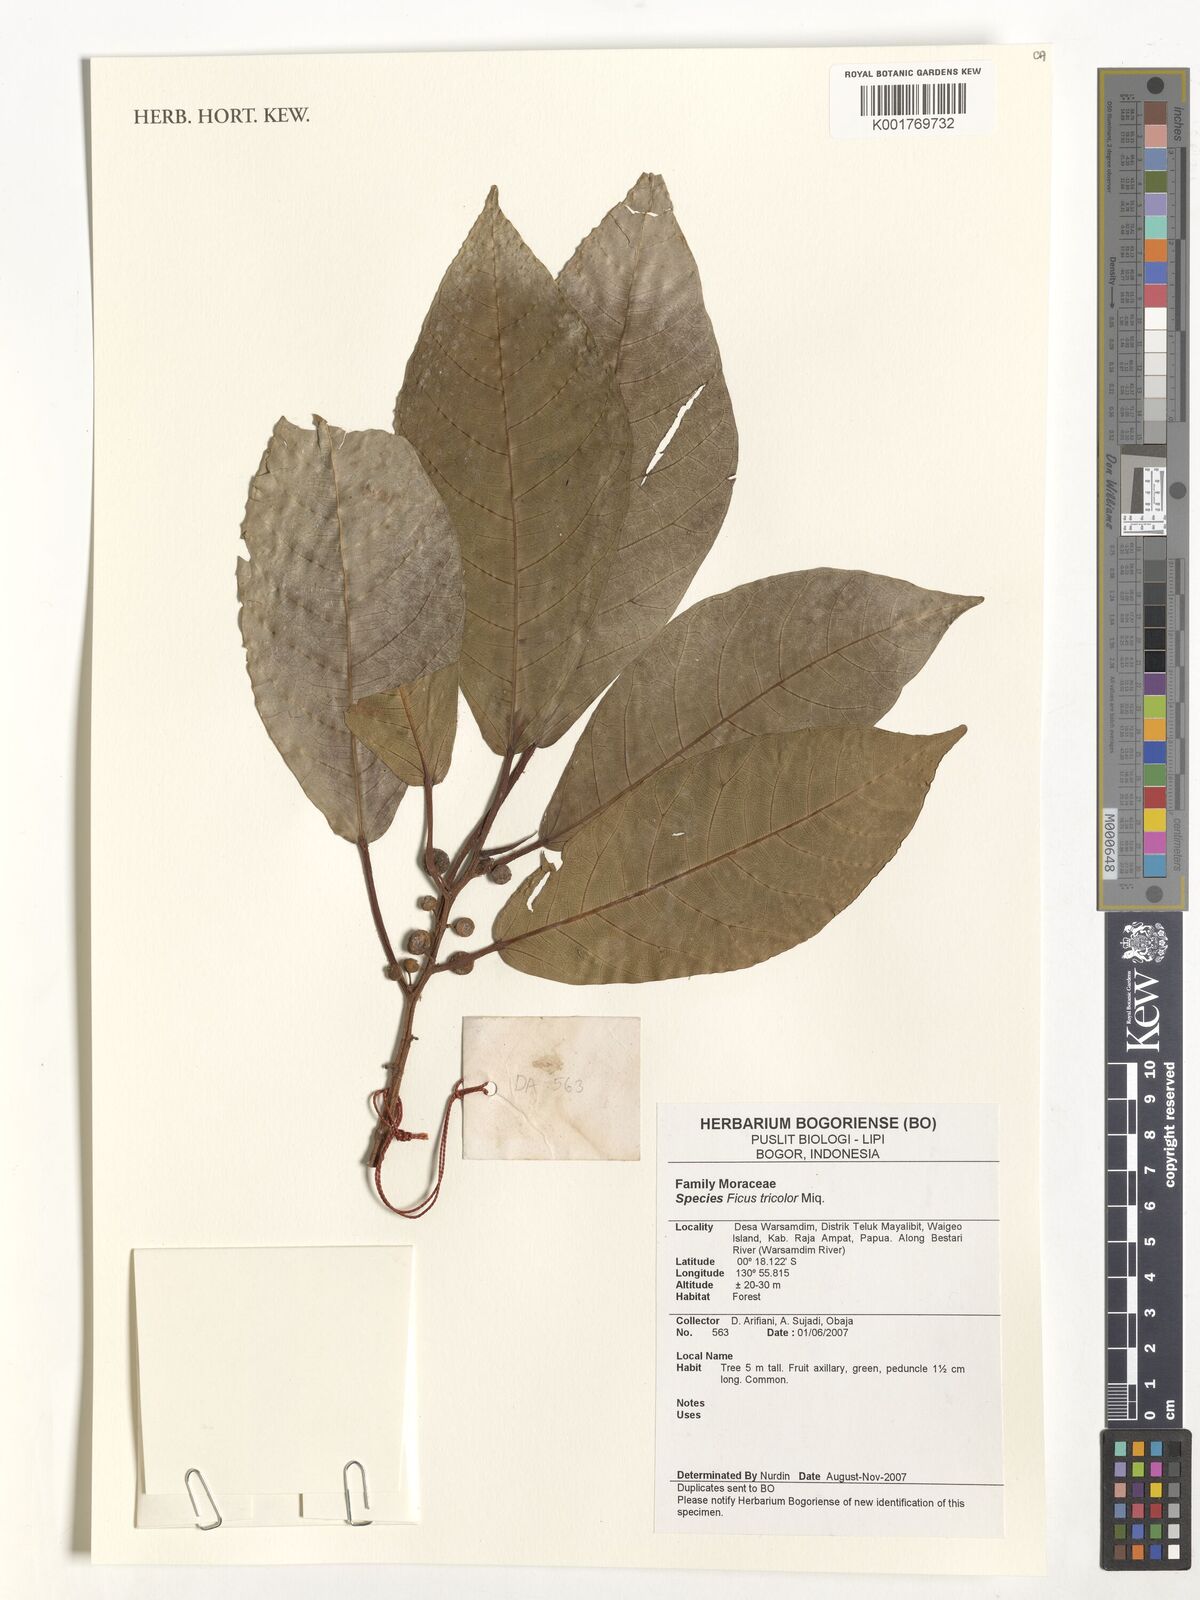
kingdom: Plantae
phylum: Tracheophyta
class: Magnoliopsida
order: Rosales
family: Moraceae
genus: Ficus
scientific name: Ficus tricolor
